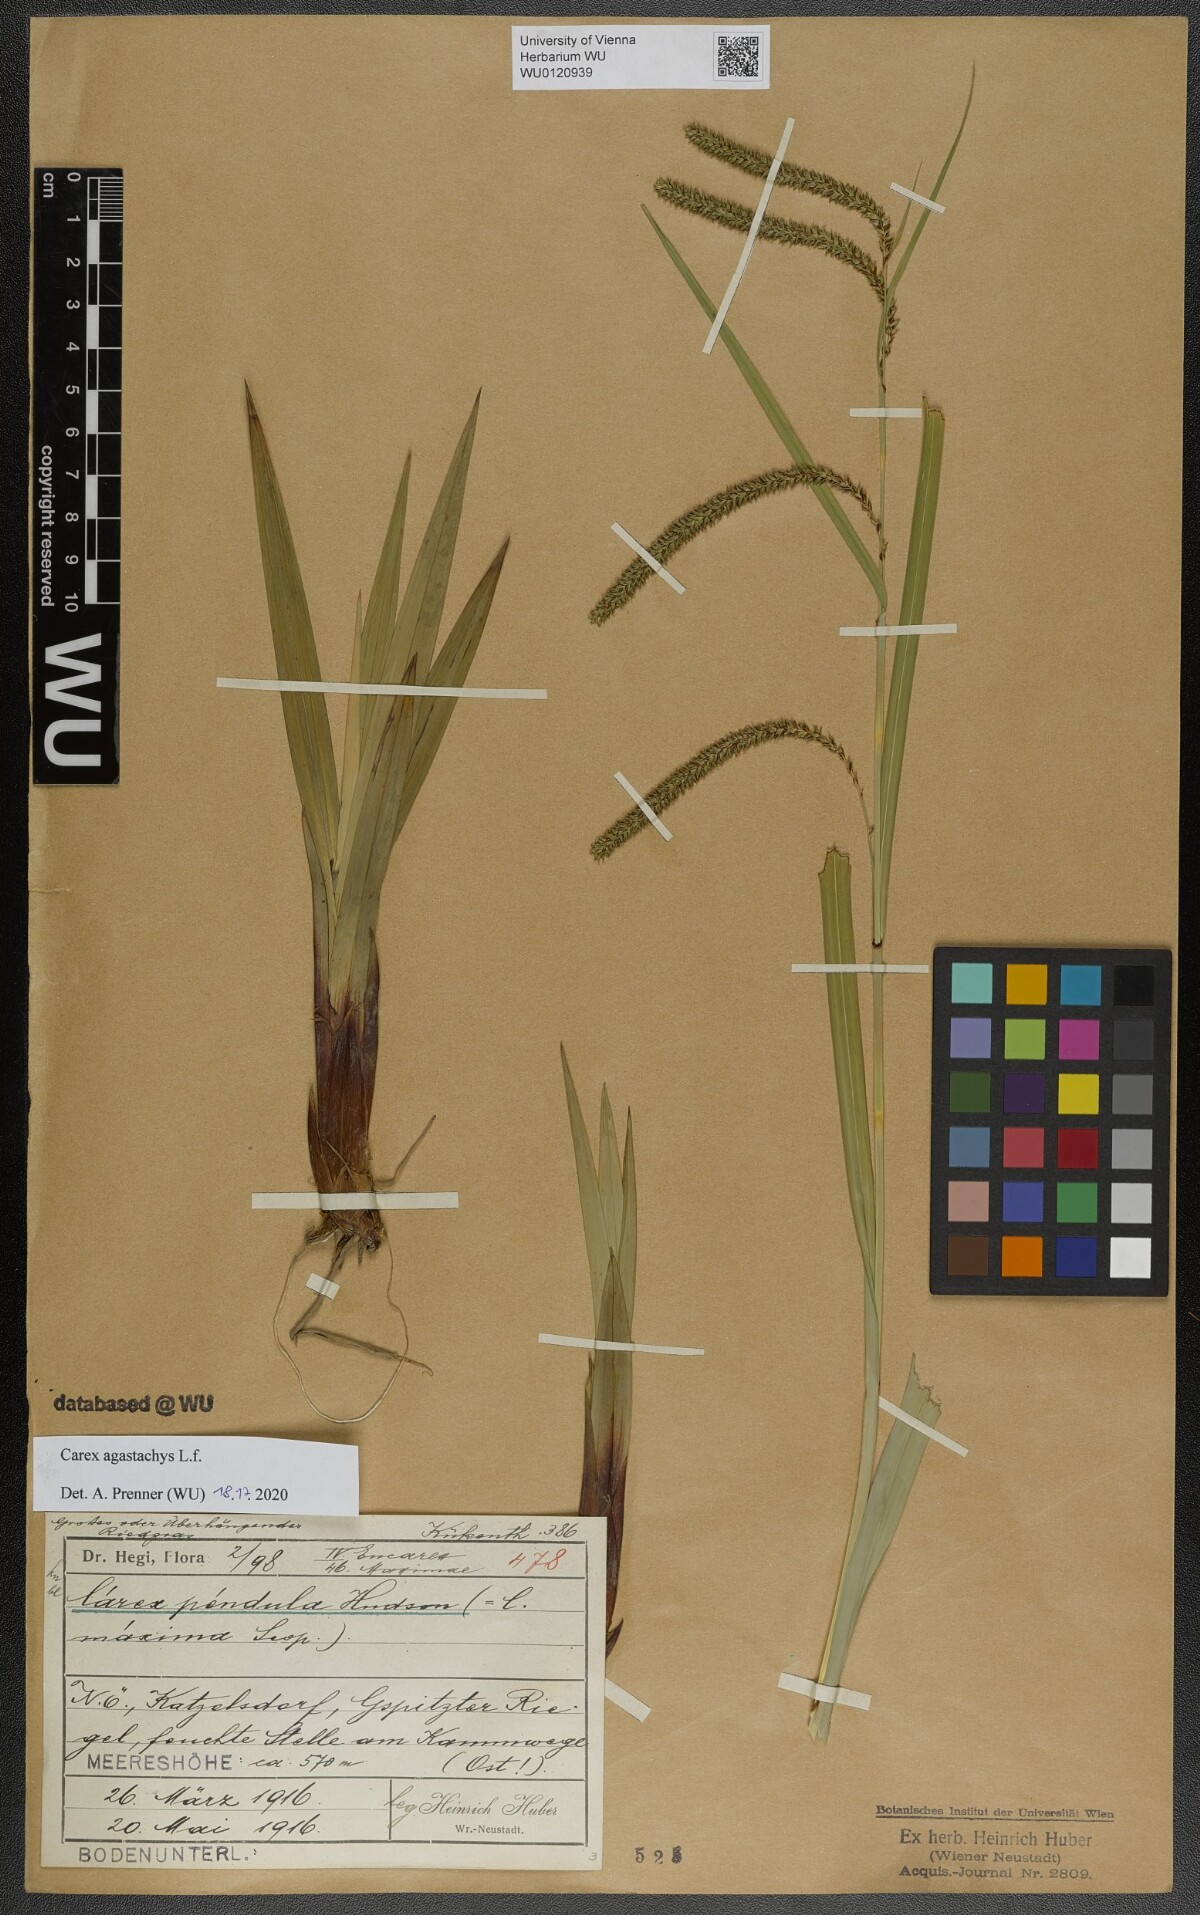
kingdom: Plantae
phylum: Tracheophyta
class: Liliopsida
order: Poales
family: Cyperaceae
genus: Carex
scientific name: Carex agastachys
